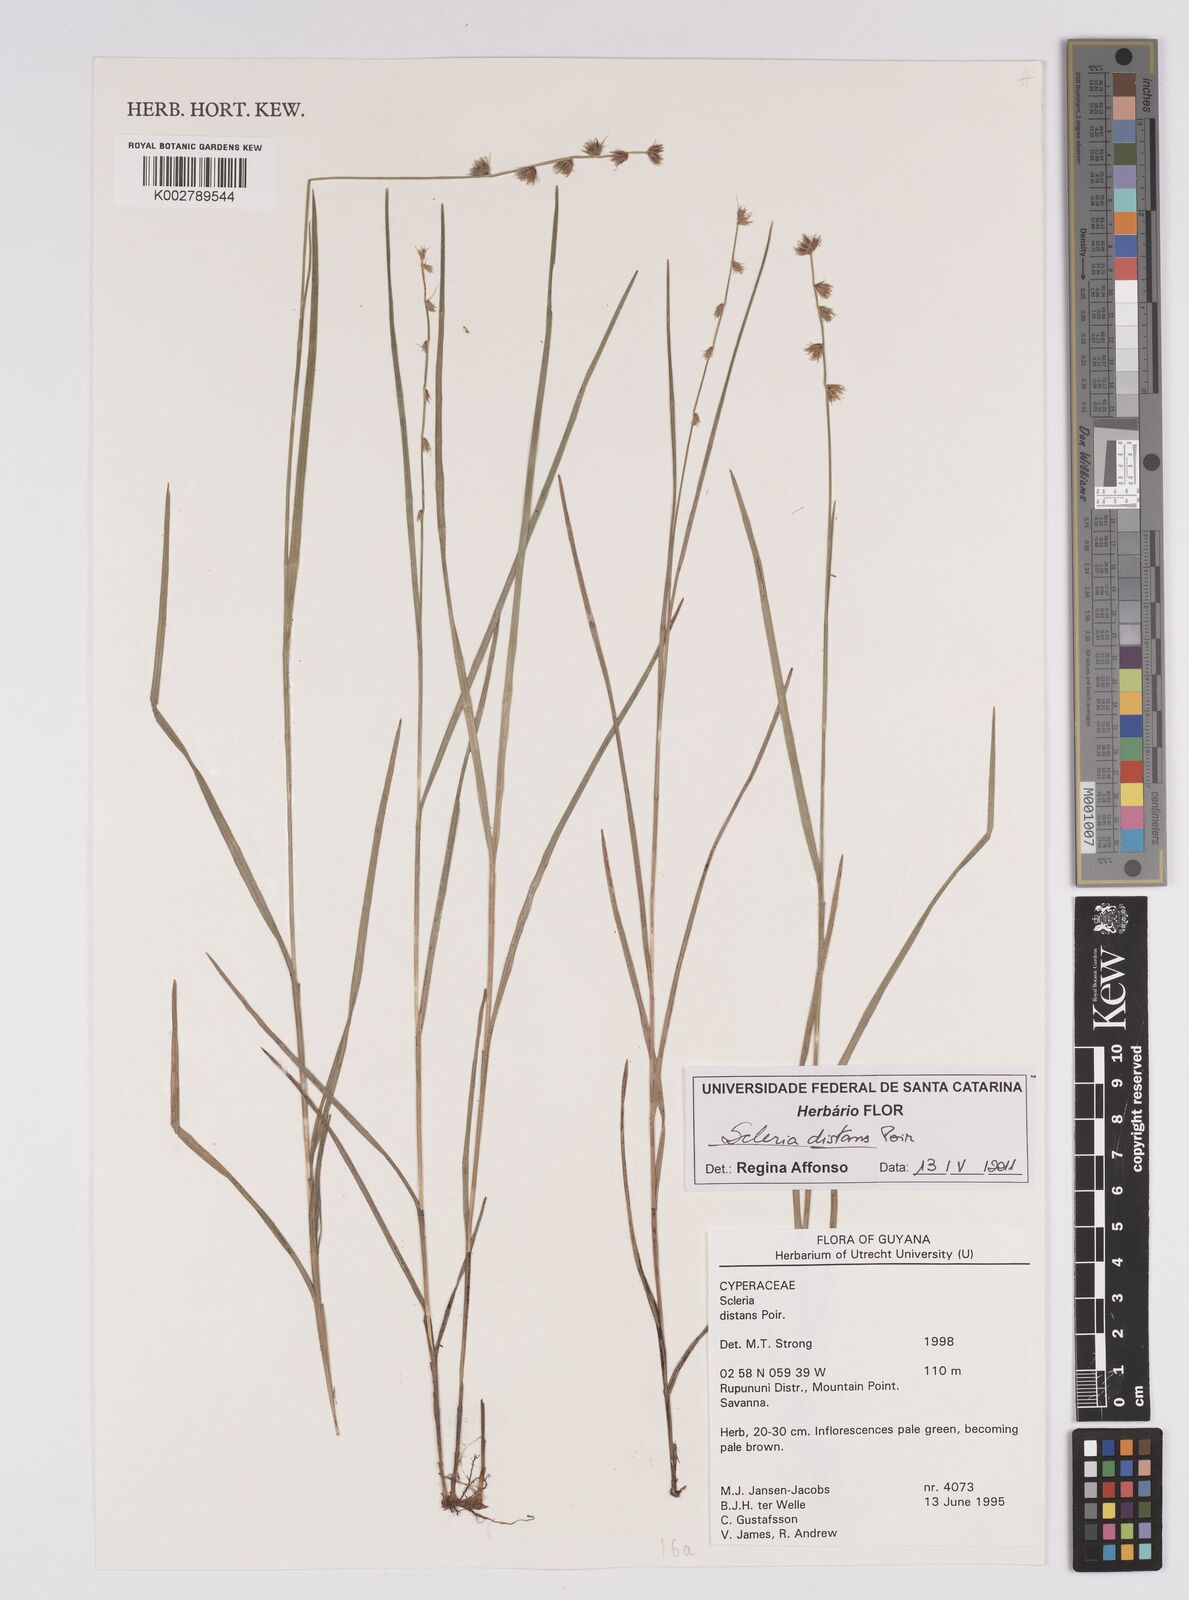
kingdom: Plantae
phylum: Tracheophyta
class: Liliopsida
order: Poales
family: Cyperaceae
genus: Scleria
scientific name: Scleria distans
